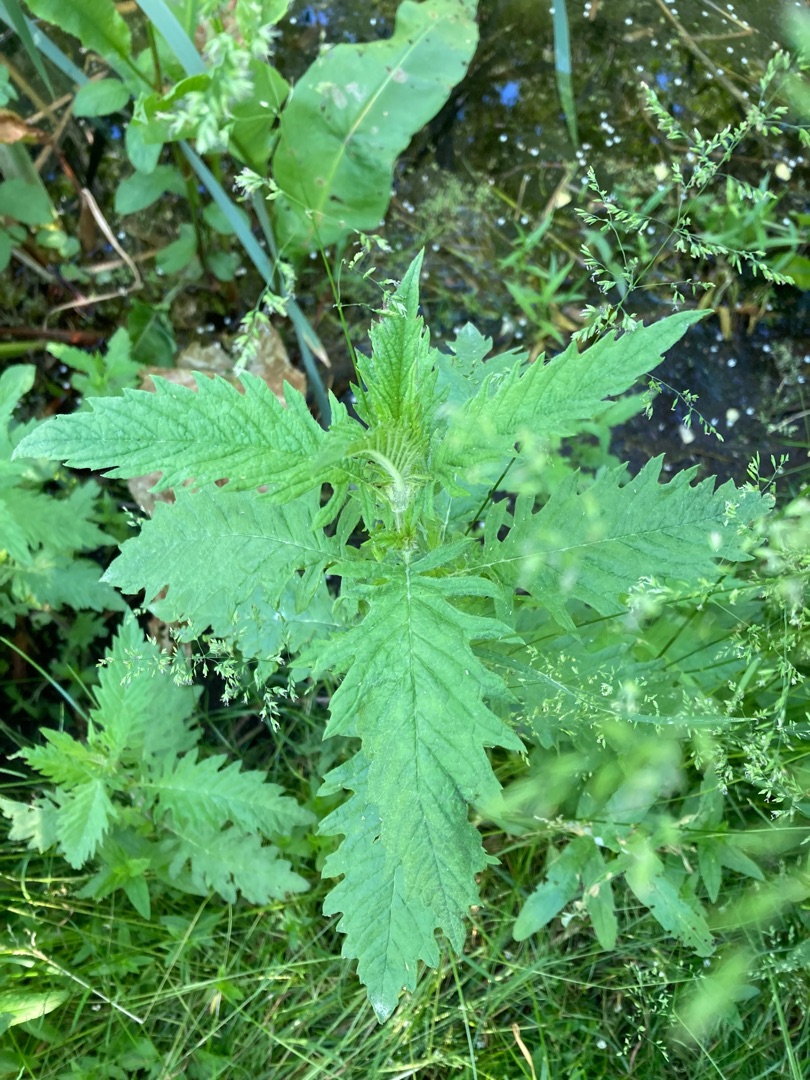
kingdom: Plantae
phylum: Tracheophyta
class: Magnoliopsida
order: Lamiales
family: Lamiaceae
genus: Lycopus
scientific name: Lycopus europaeus
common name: Sværtevæld
